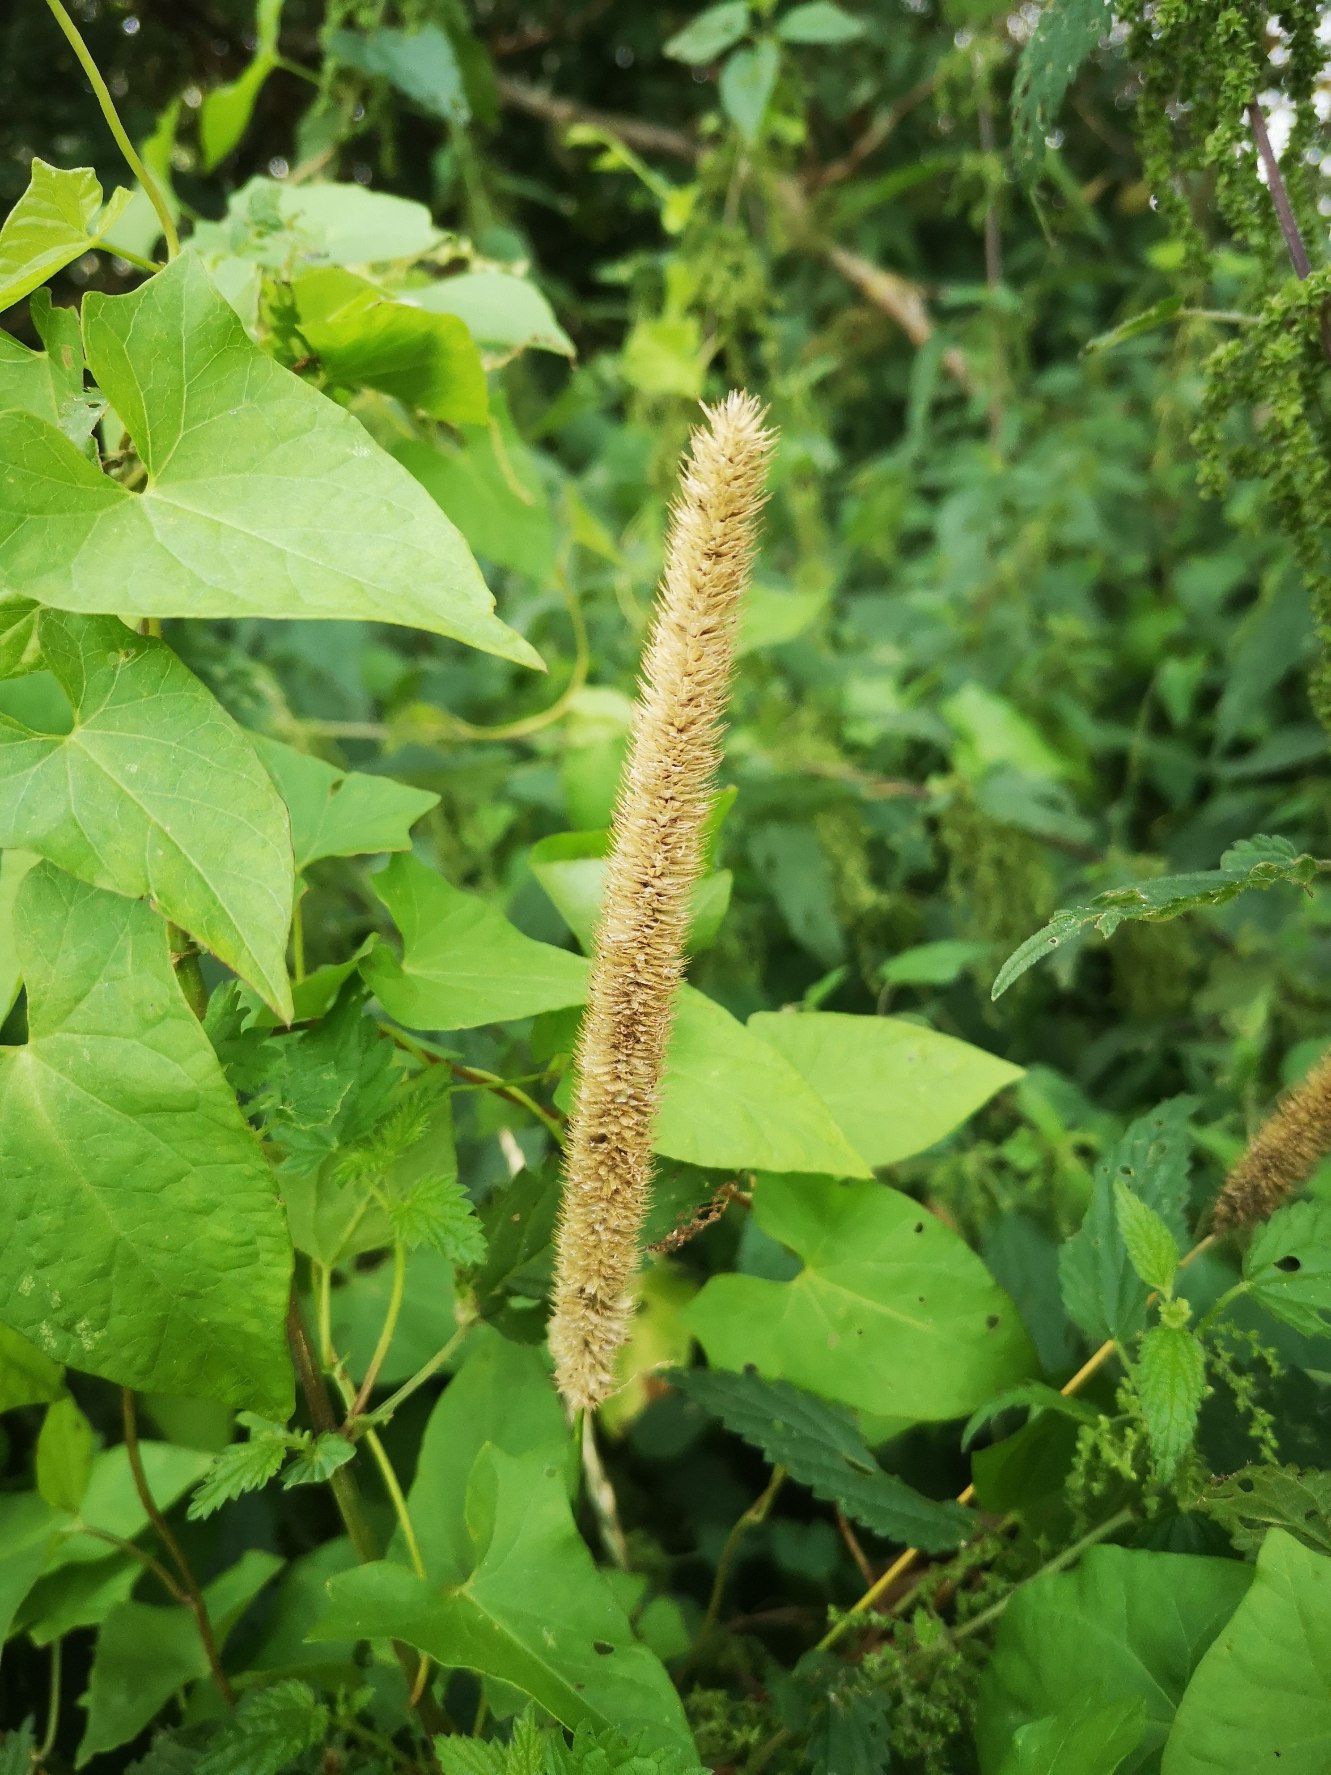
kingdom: Plantae
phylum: Tracheophyta
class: Liliopsida
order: Poales
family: Poaceae
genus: Phleum
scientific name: Phleum pratense
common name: Eng-rottehale
